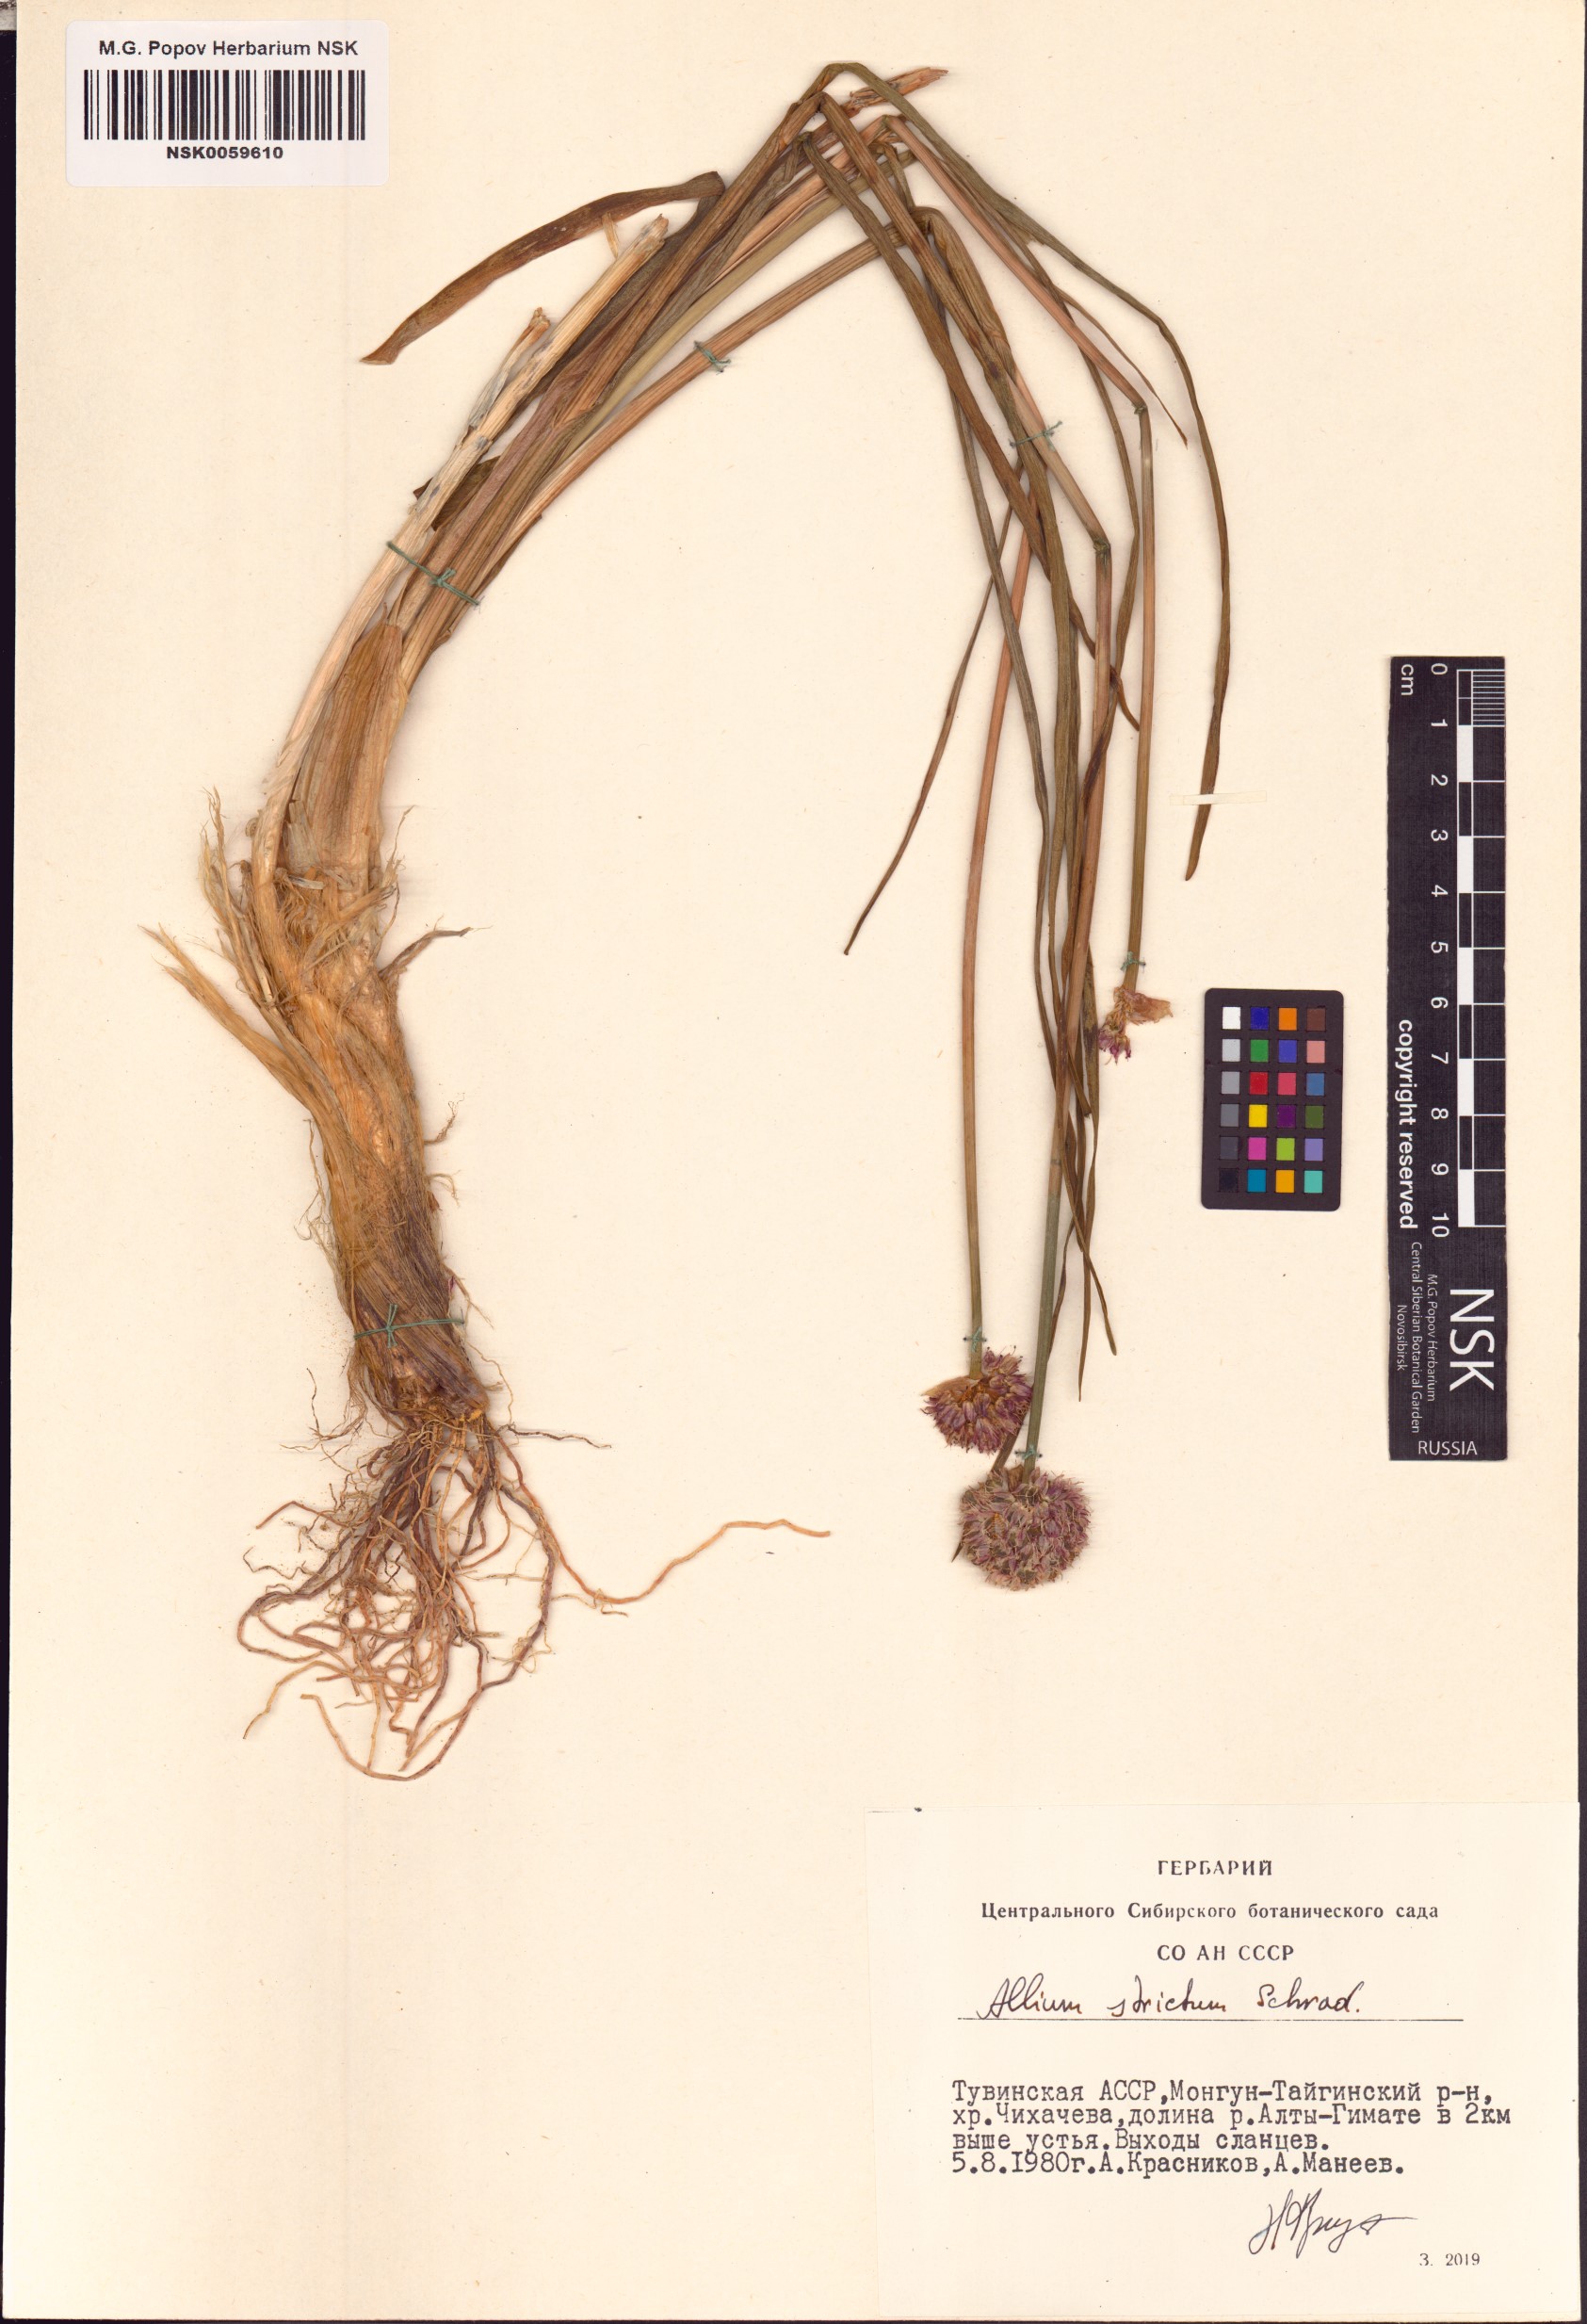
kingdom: Plantae
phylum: Tracheophyta
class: Liliopsida
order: Asparagales
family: Amaryllidaceae
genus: Allium
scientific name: Allium strictum
